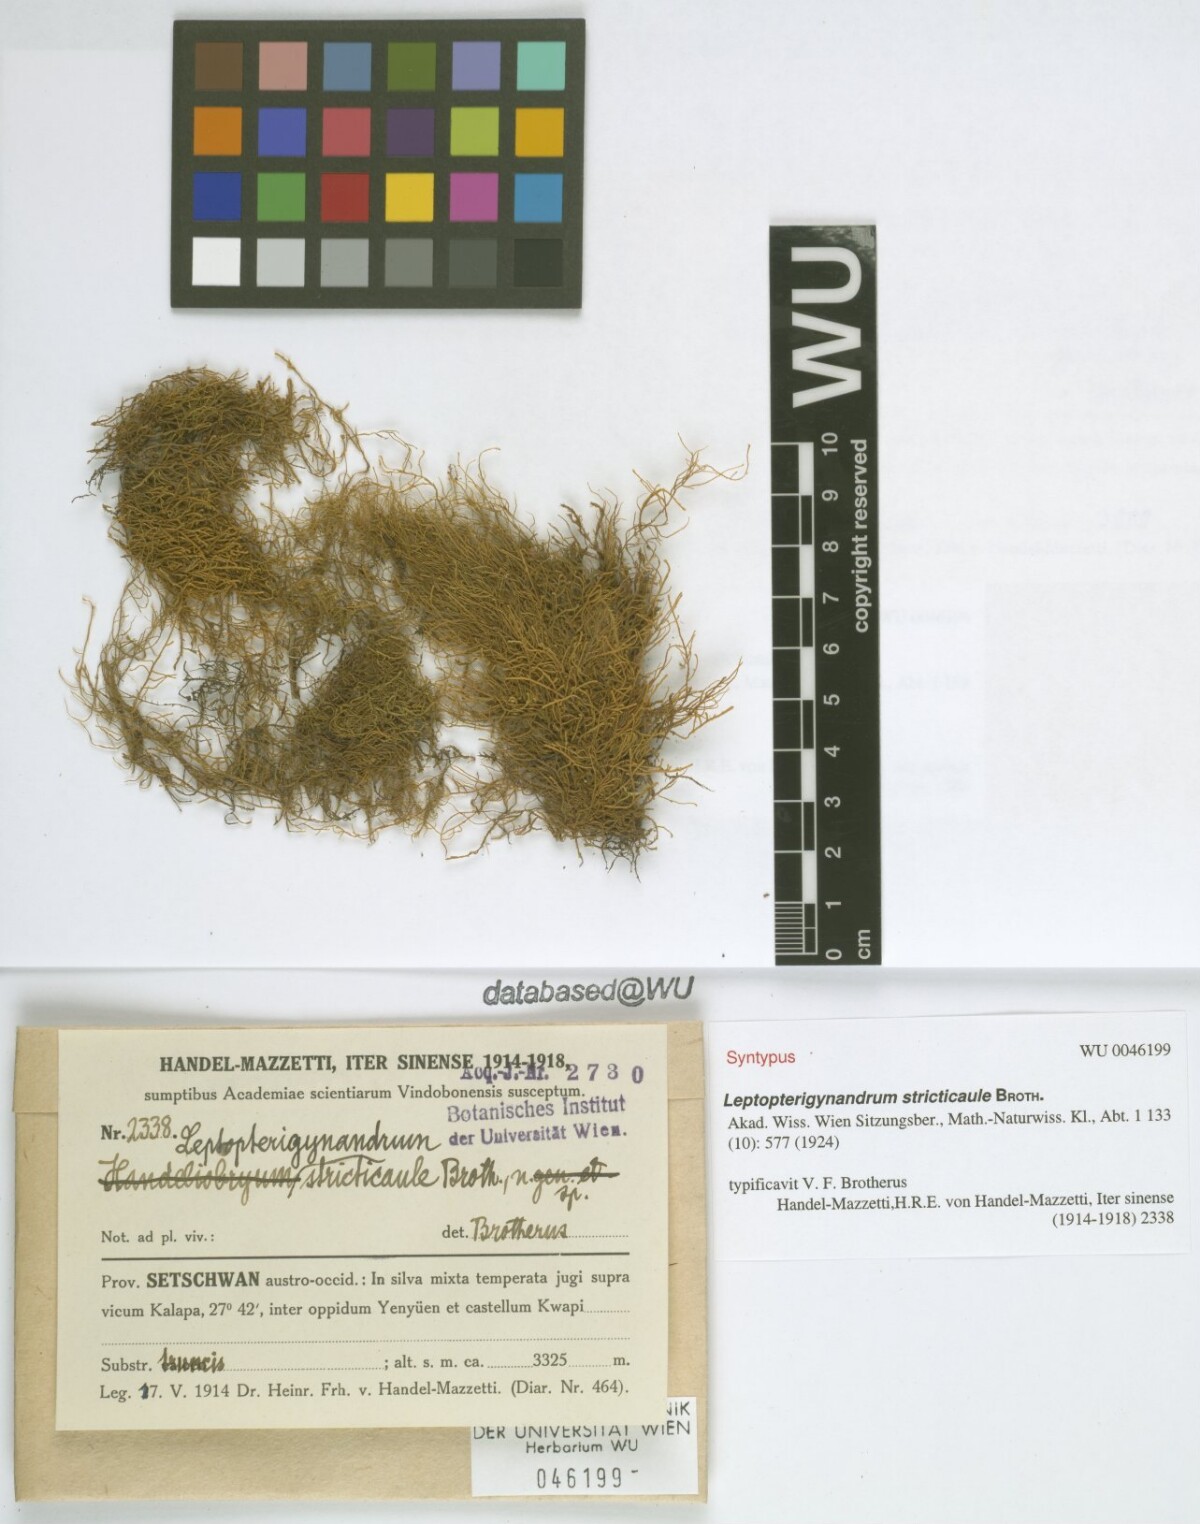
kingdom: Plantae
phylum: Bryophyta
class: Bryopsida
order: Hypnales
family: Taxiphyllaceae
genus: Leptopterigynandrum
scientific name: Leptopterigynandrum stricticaule
